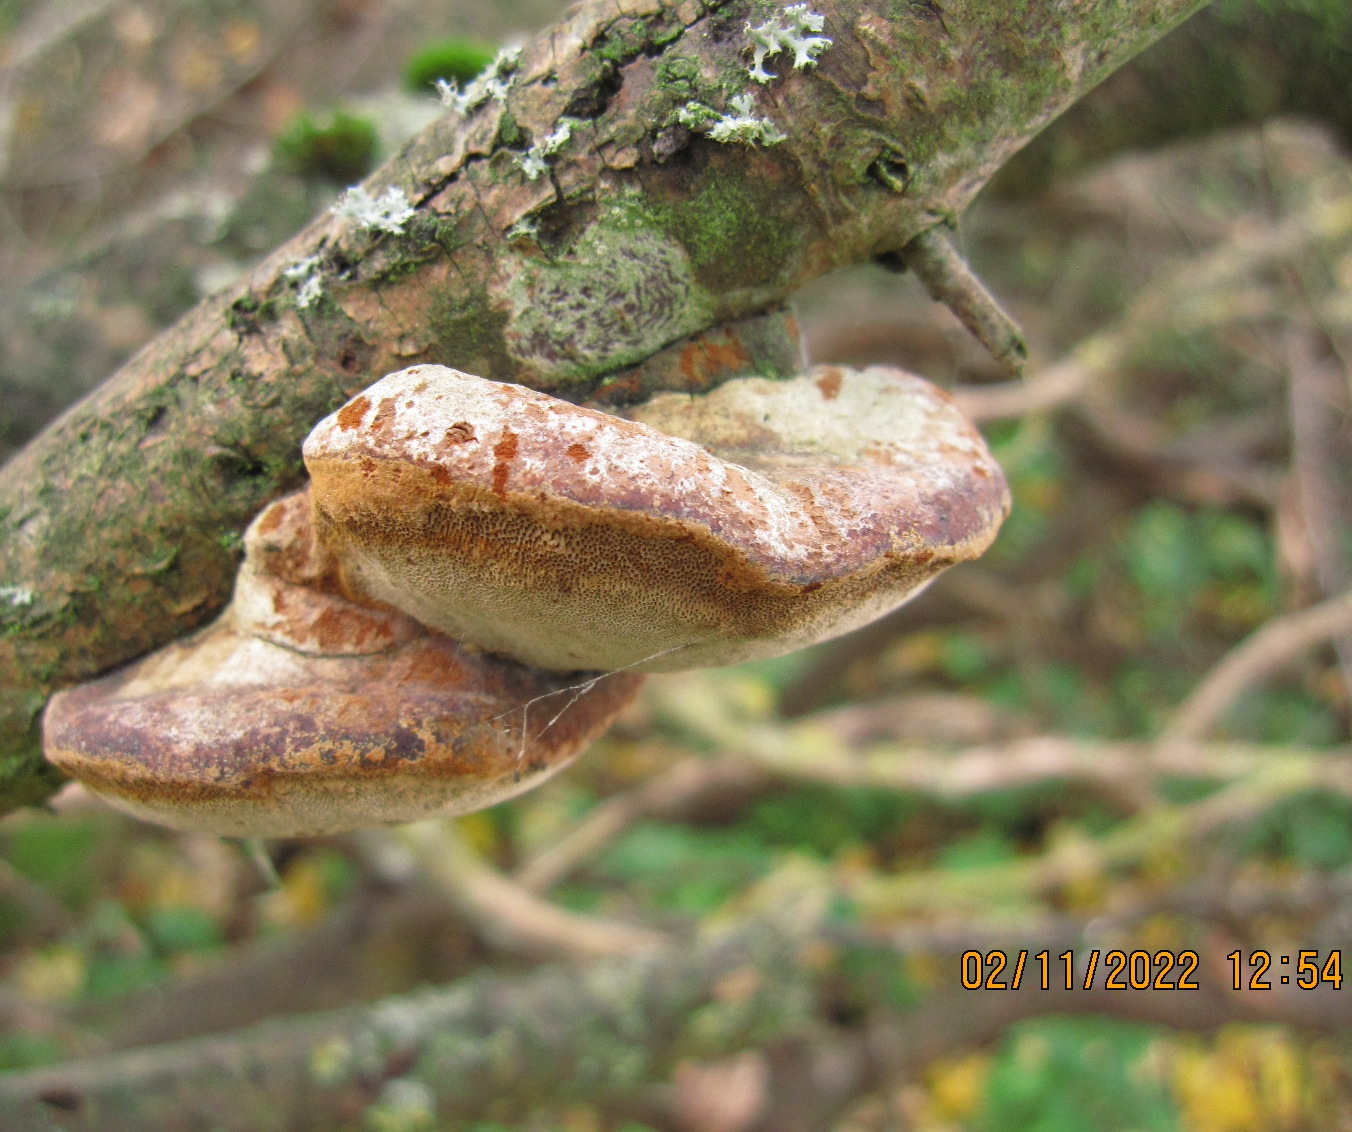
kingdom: Fungi
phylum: Basidiomycota
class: Agaricomycetes
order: Hymenochaetales
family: Hymenochaetaceae
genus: Phellinus
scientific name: Phellinus pomaceus
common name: blomme-ildporesvamp
